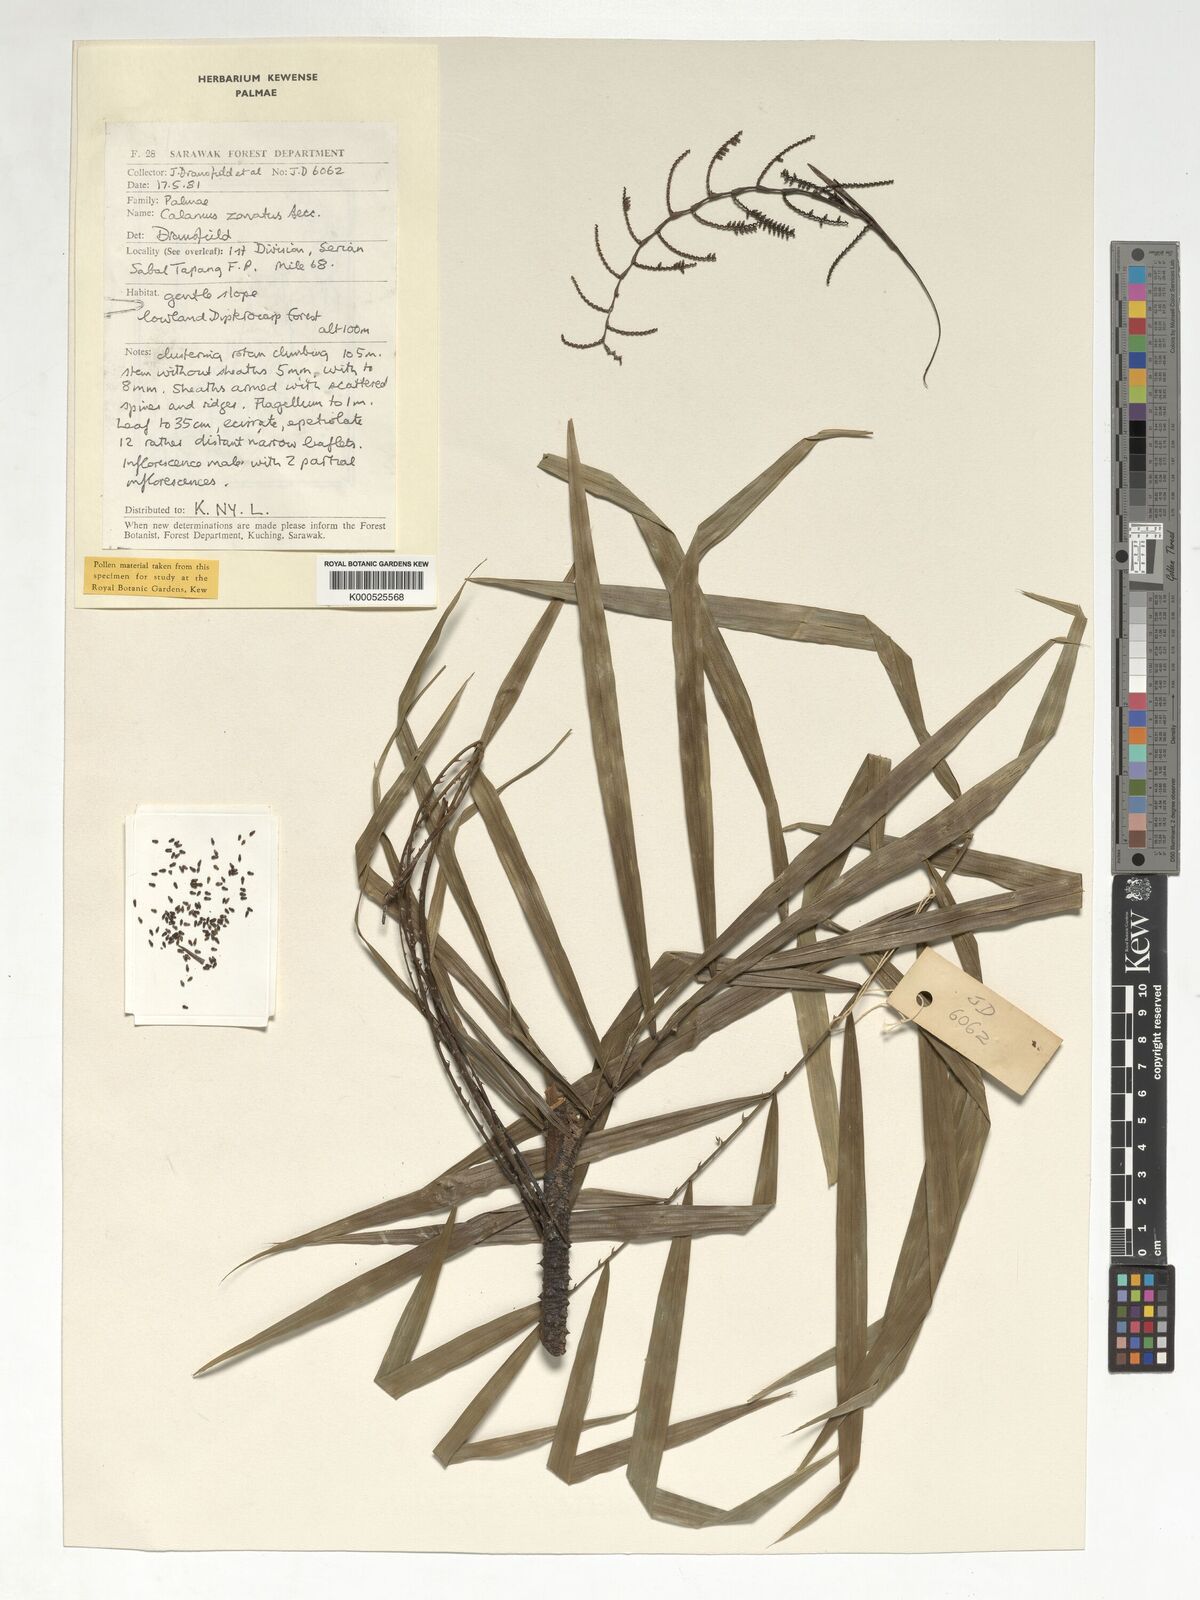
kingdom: Plantae
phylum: Tracheophyta
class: Liliopsida
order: Arecales
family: Arecaceae
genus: Calamus
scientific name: Calamus zonatus
